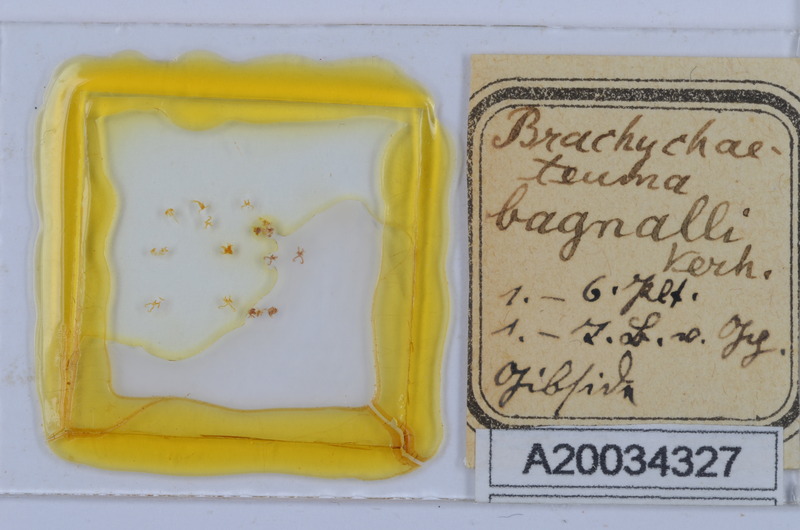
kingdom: Animalia
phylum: Arthropoda
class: Diplopoda
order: Chordeumatida
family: Brachychaeteumatidae
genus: Brachychaeteuma
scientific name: Brachychaeteuma bagnalli
